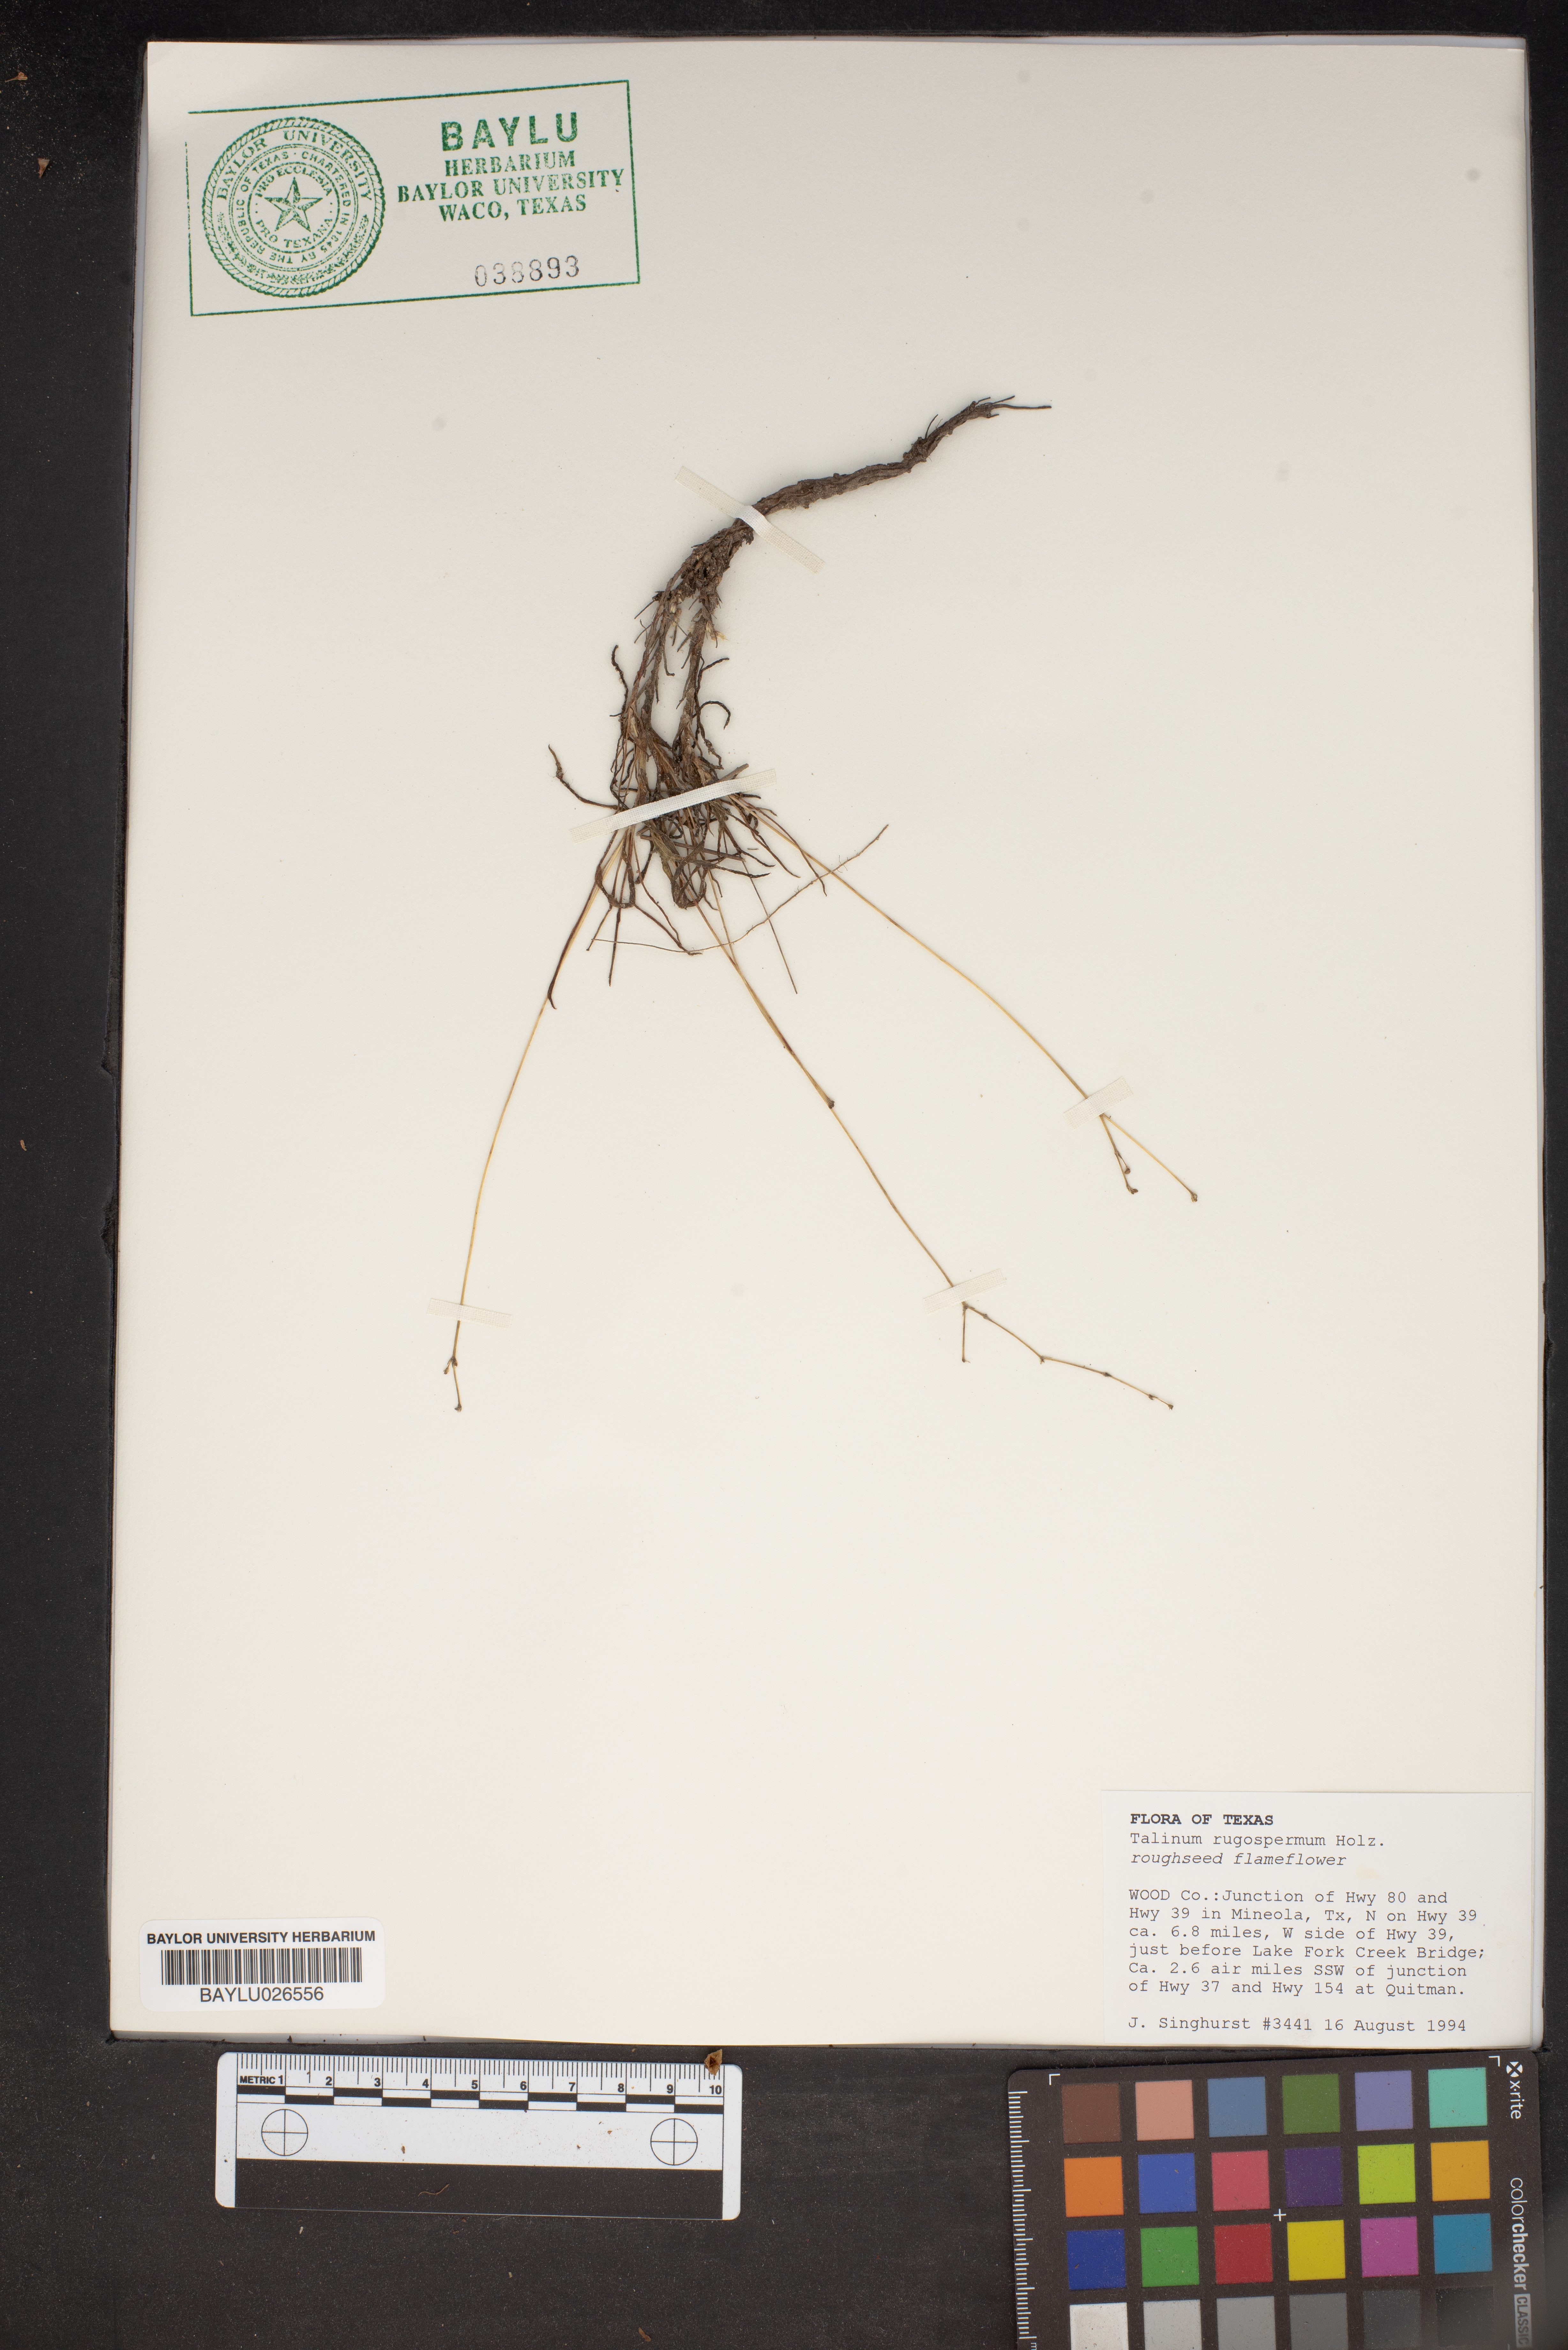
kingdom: Plantae
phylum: Tracheophyta
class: Magnoliopsida
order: Caryophyllales
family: Montiaceae
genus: Phemeranthus
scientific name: Phemeranthus rugospermus
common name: Prairie fameflower
